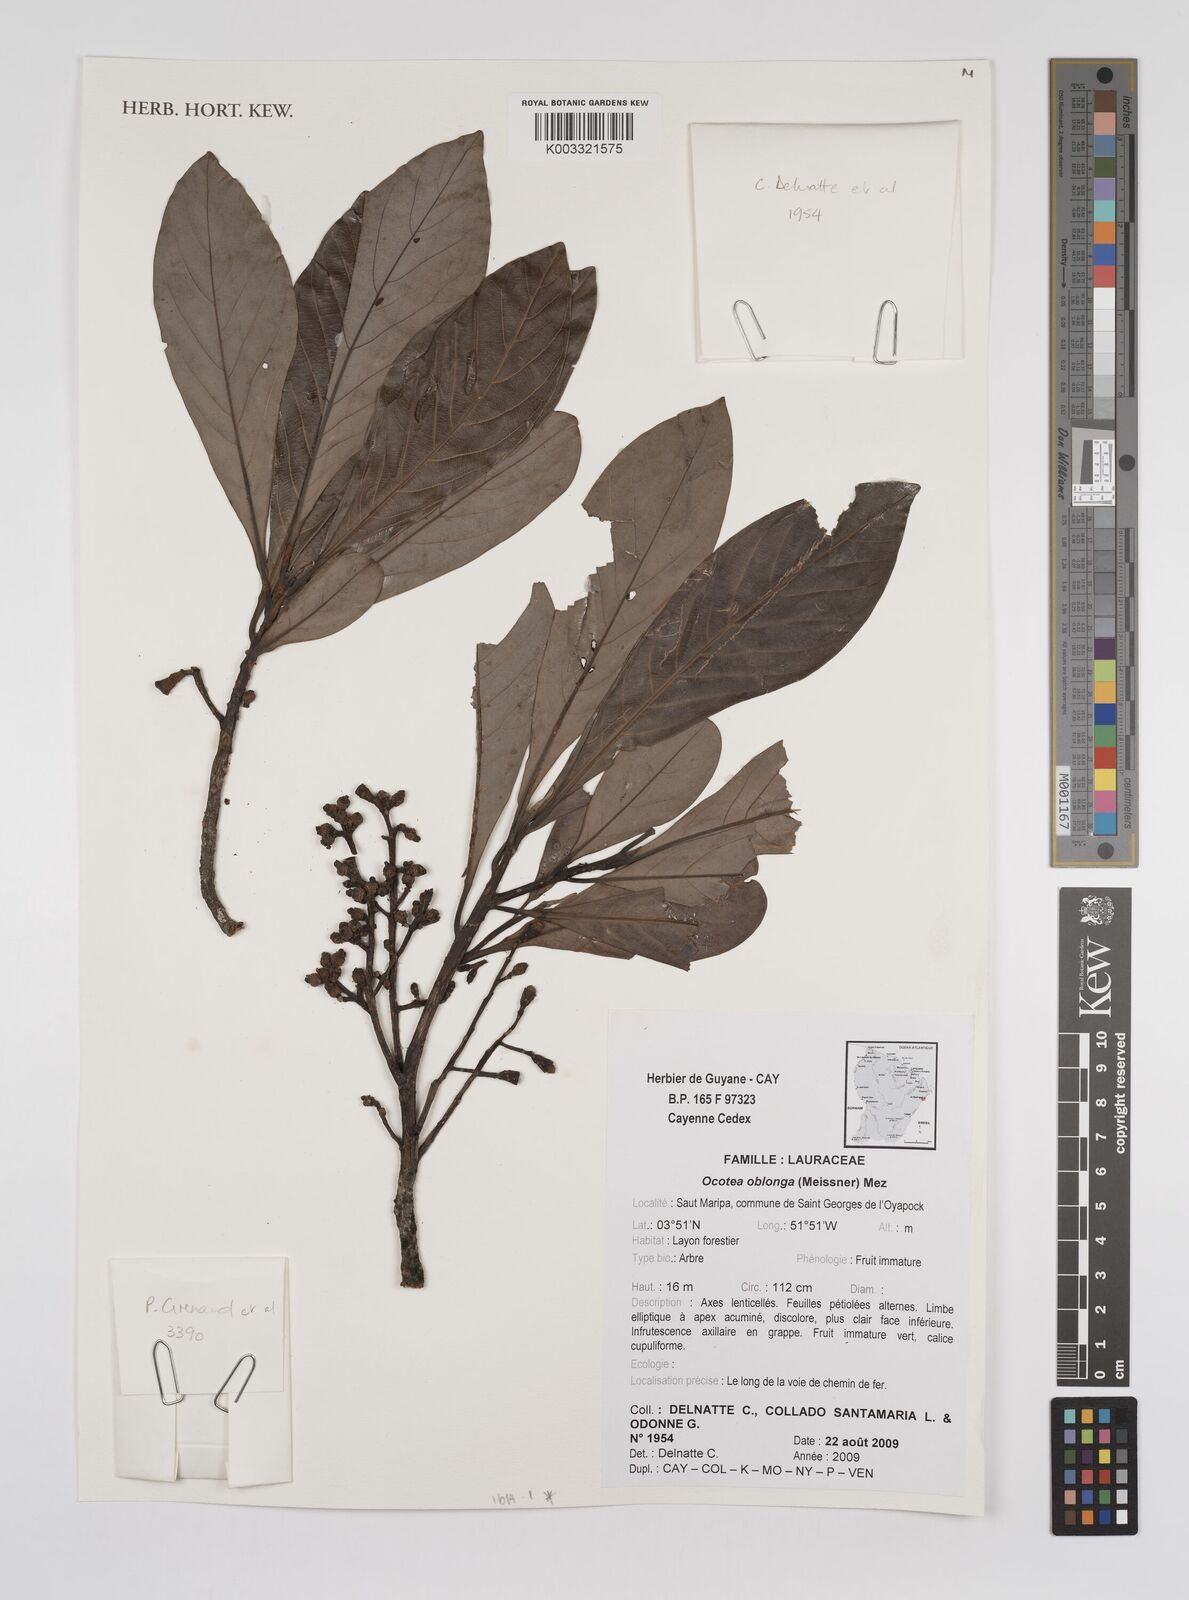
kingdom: Plantae
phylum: Tracheophyta
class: Magnoliopsida
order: Laurales
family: Lauraceae
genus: Ocotea
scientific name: Ocotea oblonga
